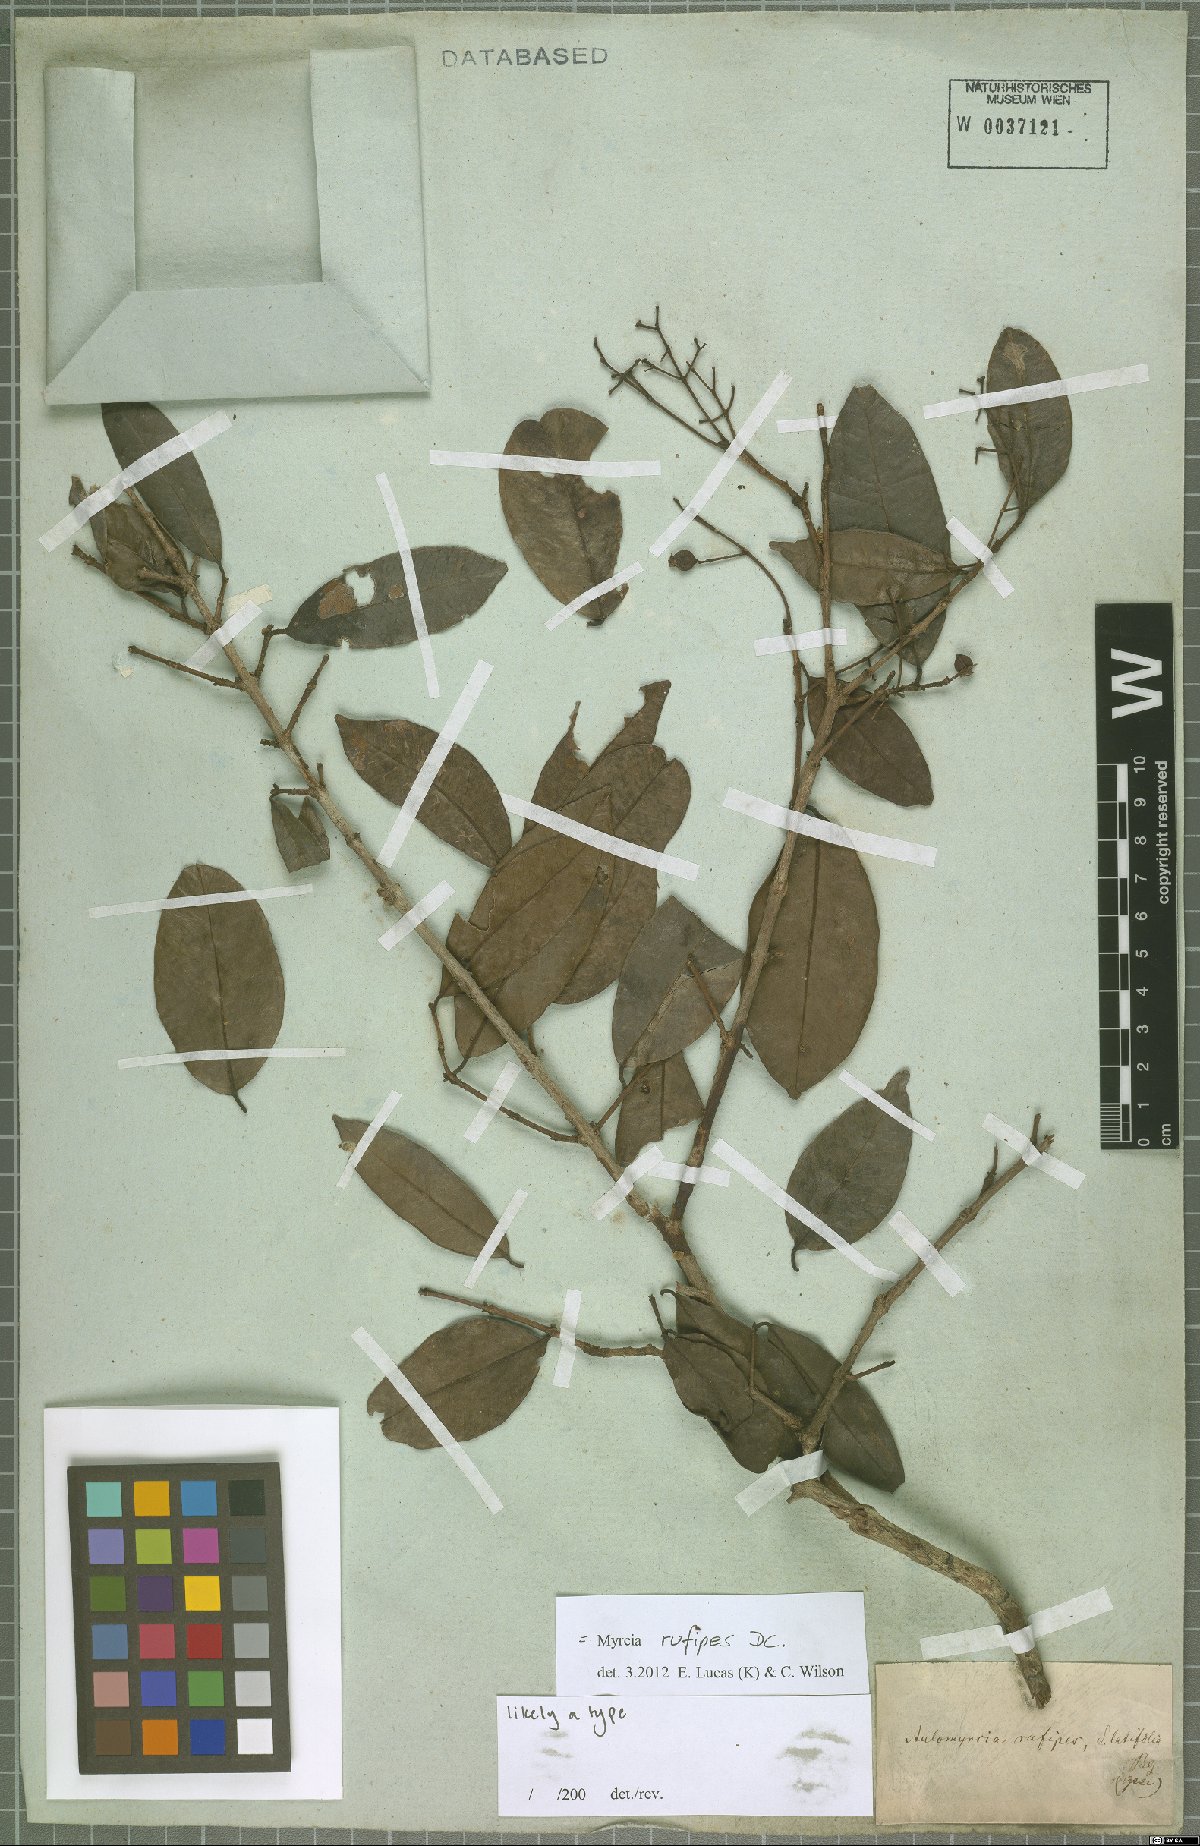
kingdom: Plantae
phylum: Tracheophyta
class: Magnoliopsida
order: Myrtales
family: Myrtaceae
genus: Myrcia
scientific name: Myrcia rufipes
